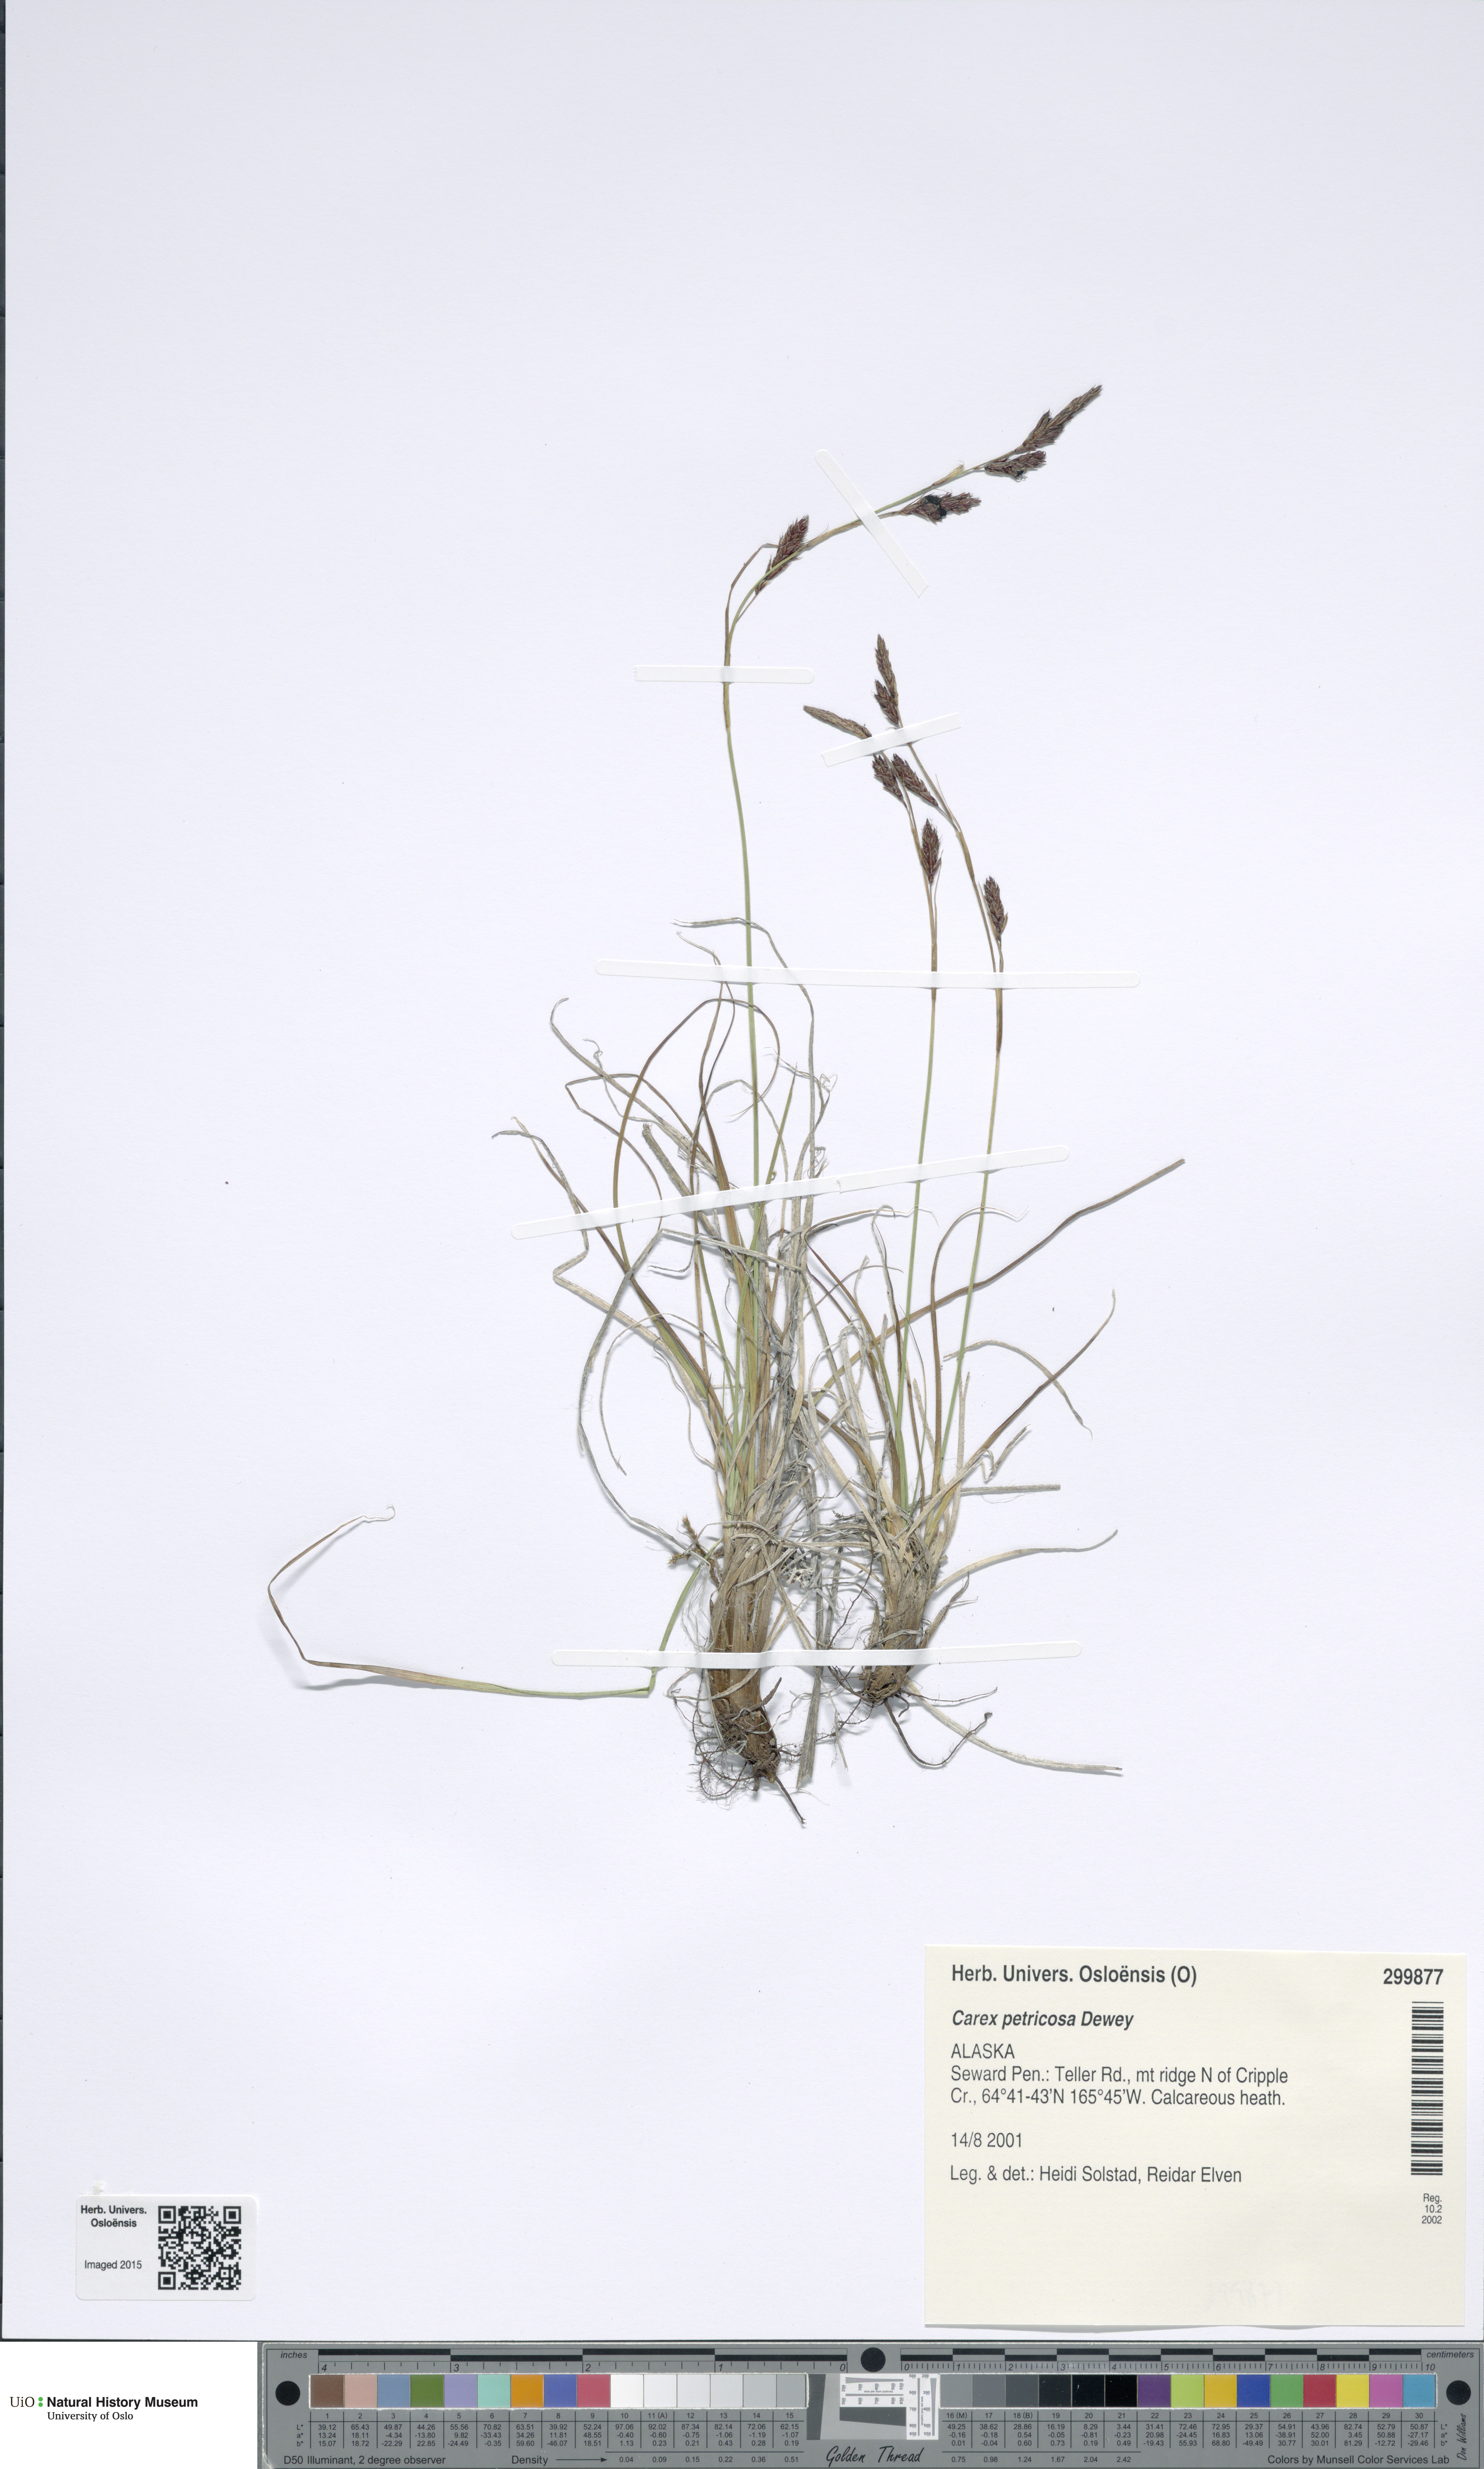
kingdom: Plantae
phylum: Tracheophyta
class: Liliopsida
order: Poales
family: Cyperaceae
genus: Carex
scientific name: Carex petricosa
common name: Rock sedge
